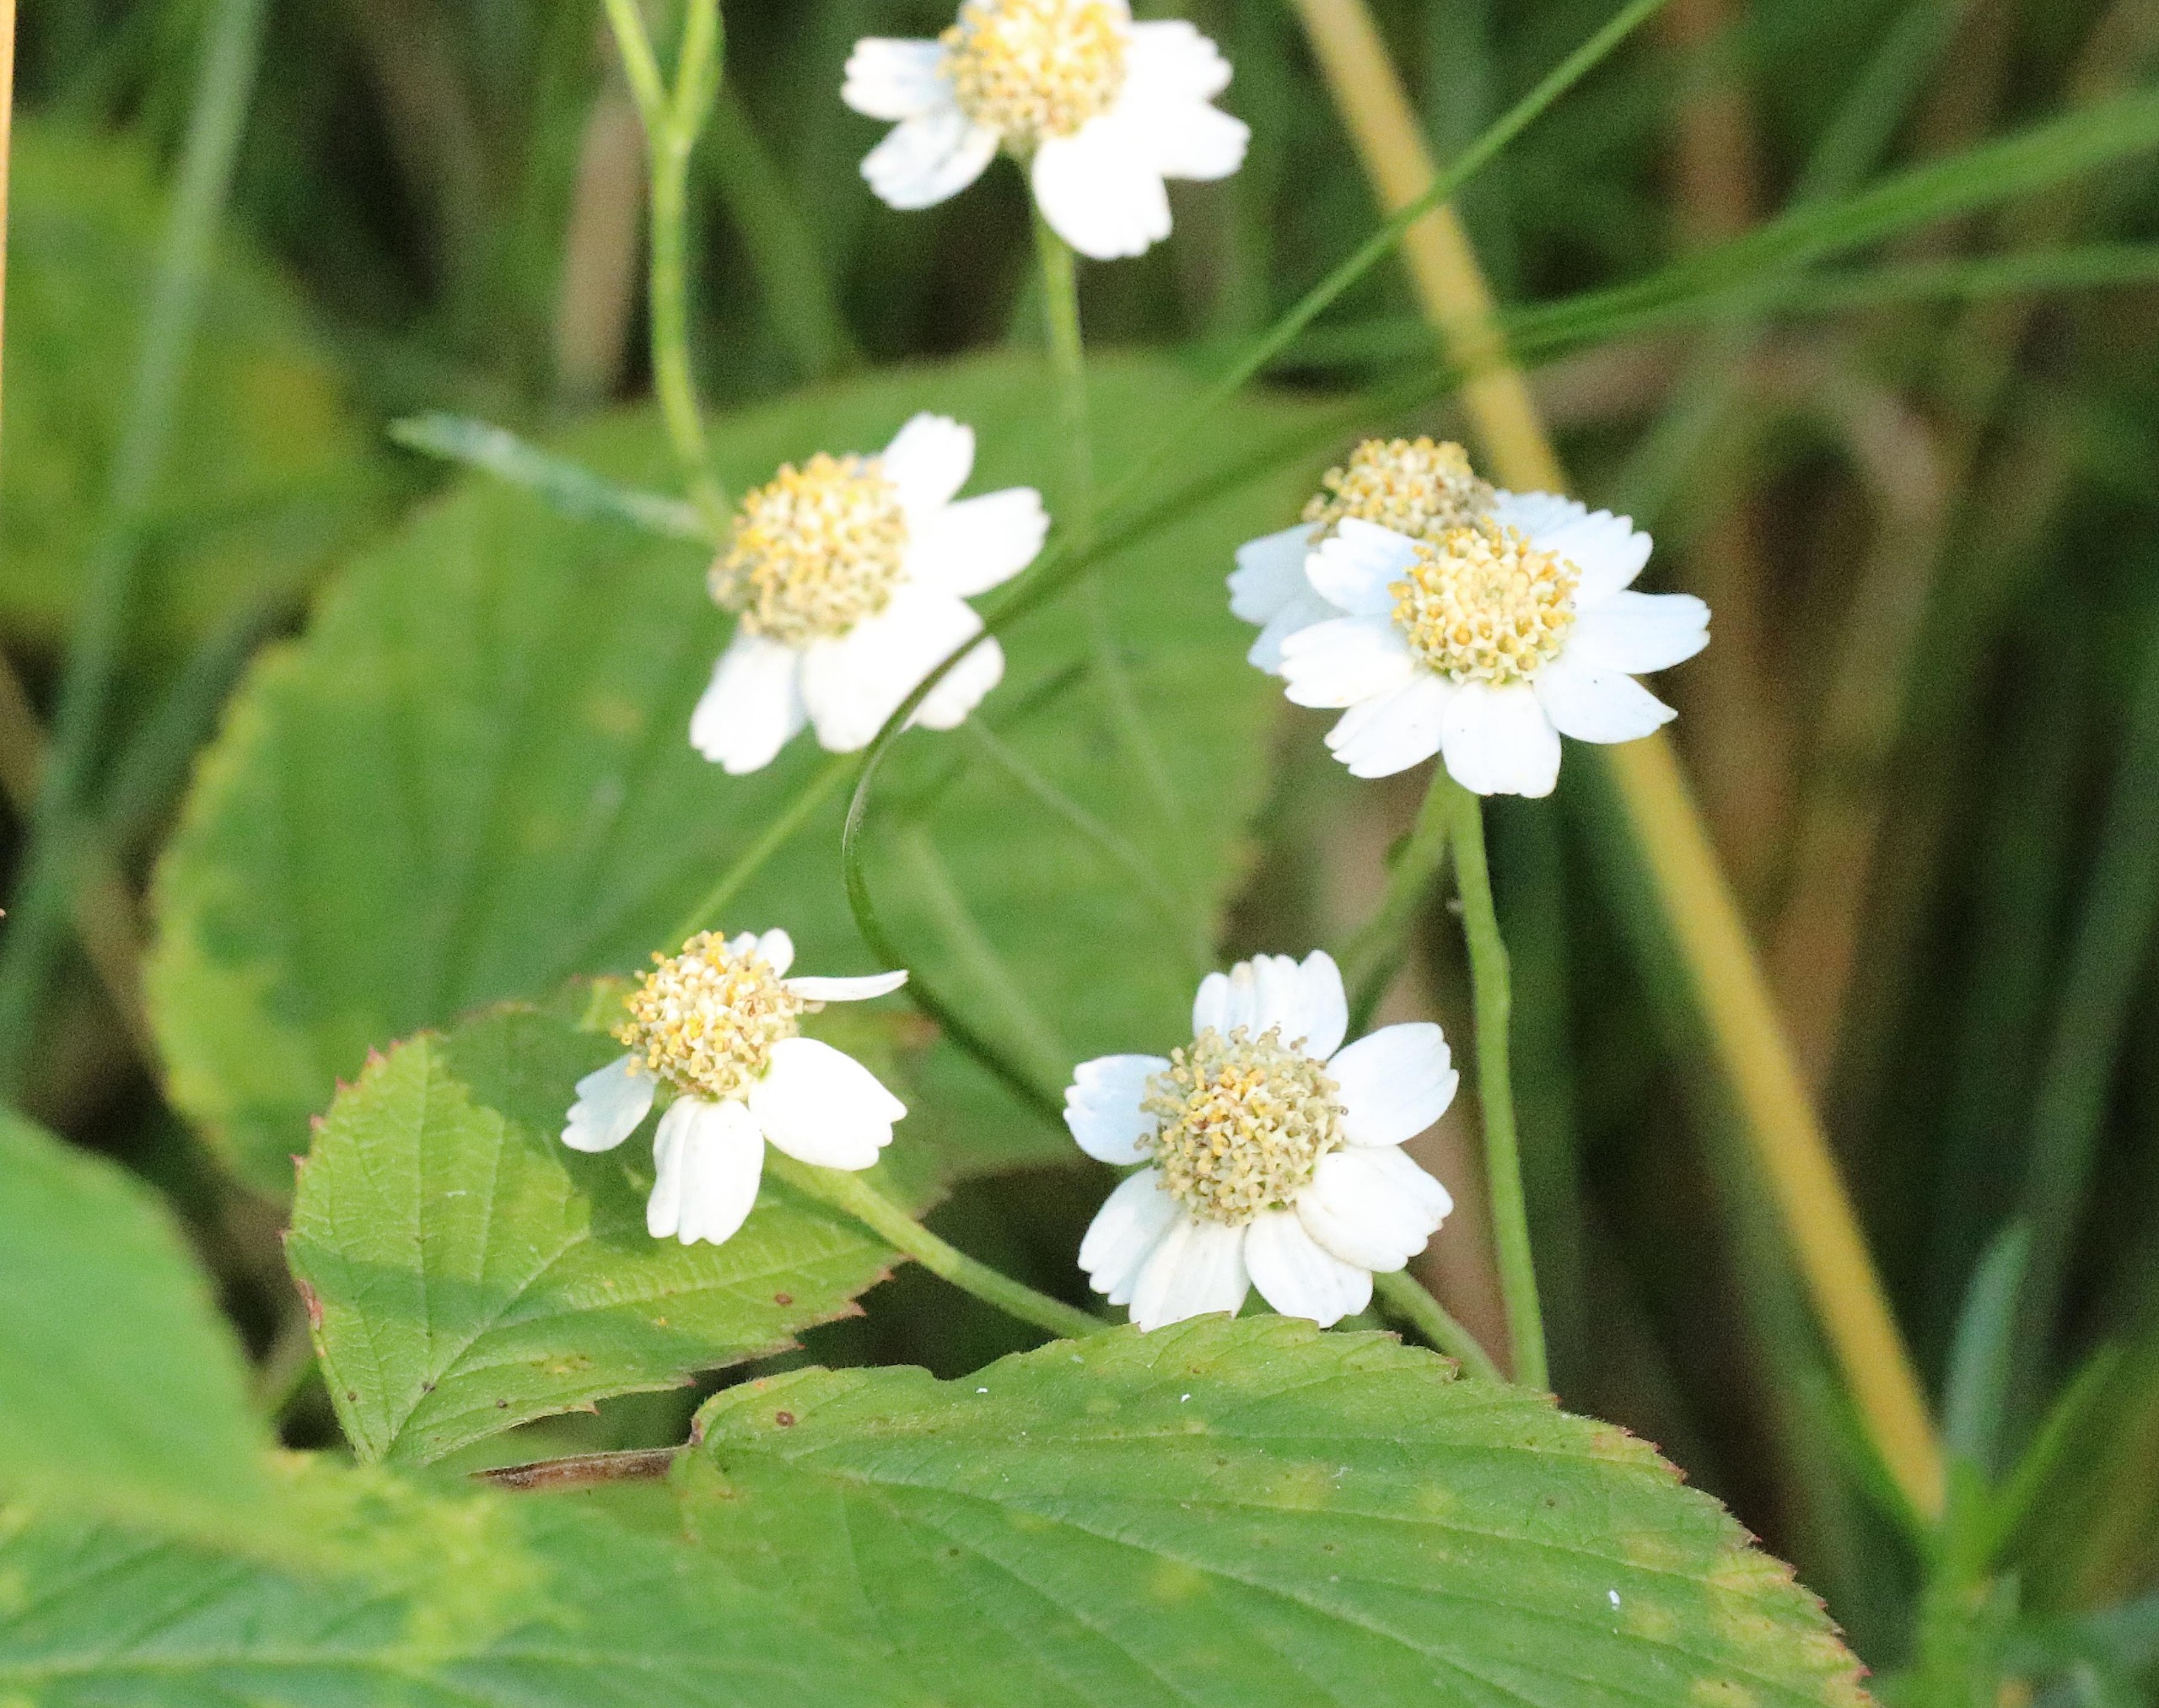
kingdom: Plantae
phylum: Tracheophyta
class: Magnoliopsida
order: Asterales
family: Asteraceae
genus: Achillea
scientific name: Achillea ptarmica
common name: Nyse-røllike
